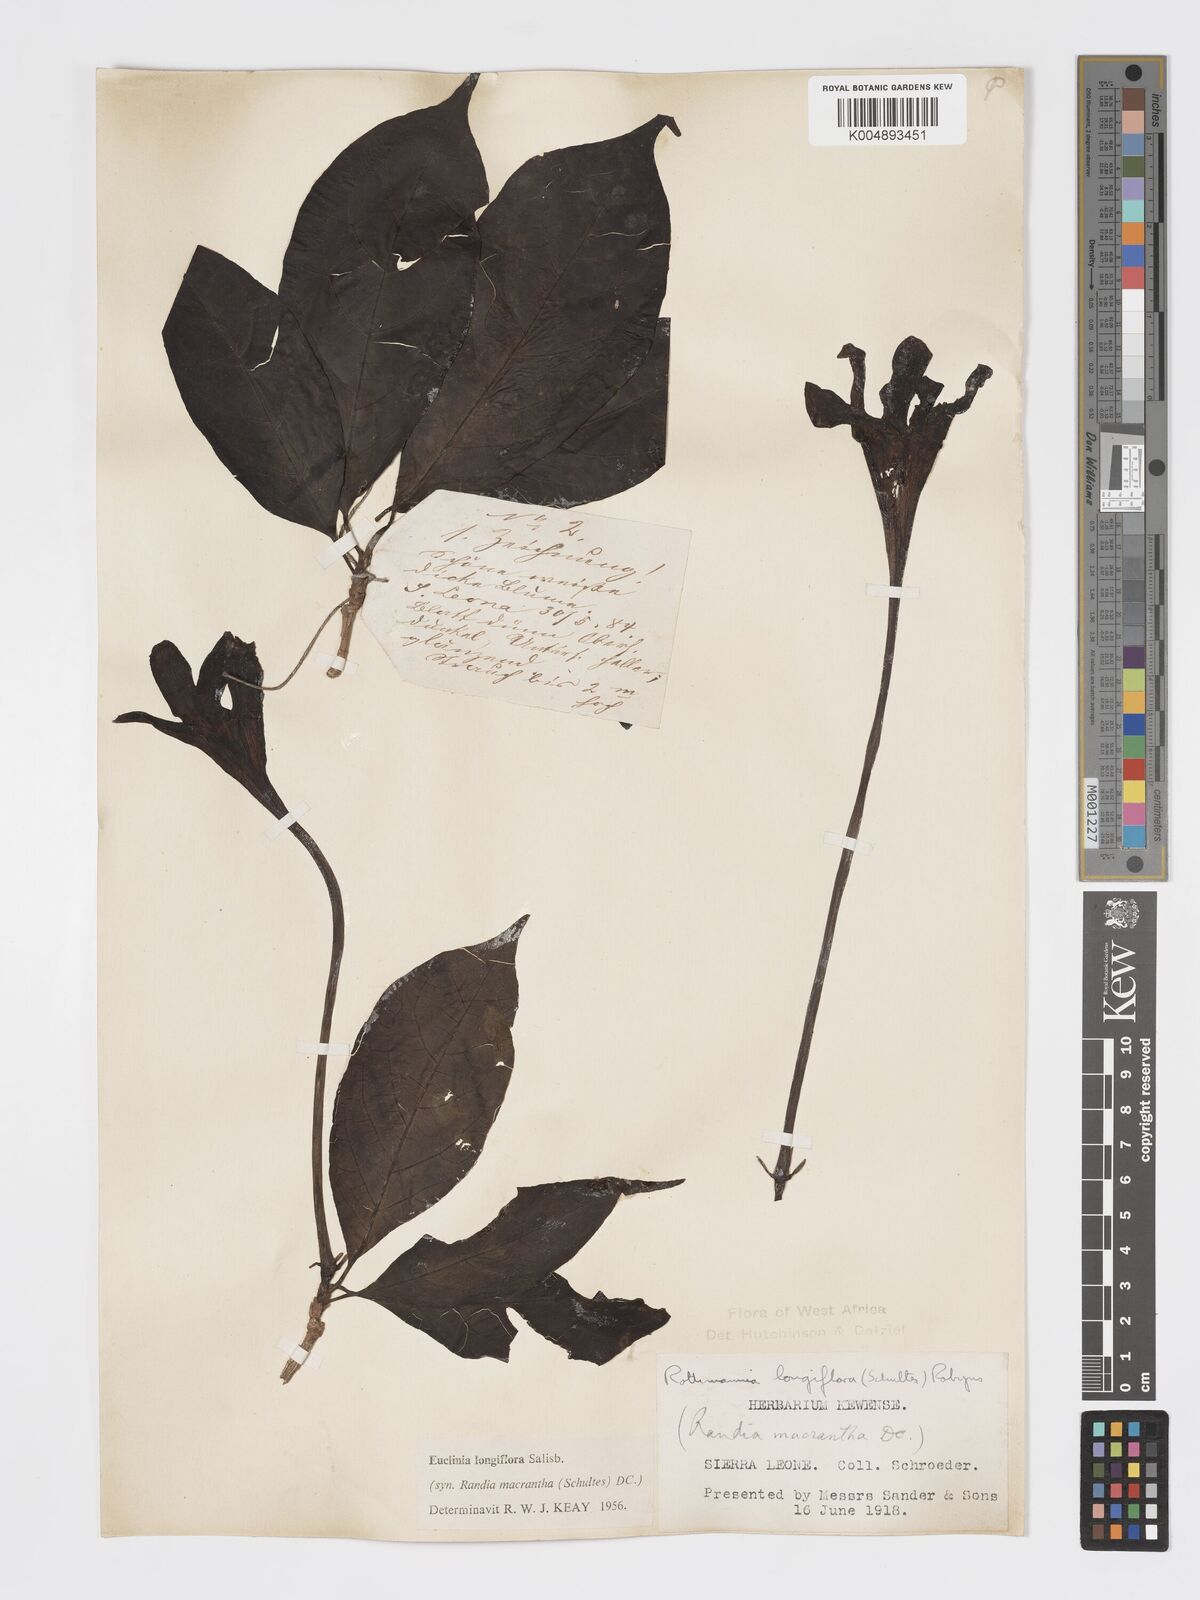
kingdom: Plantae
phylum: Tracheophyta
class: Magnoliopsida
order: Gentianales
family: Rubiaceae
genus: Euclinia
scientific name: Euclinia longiflora
